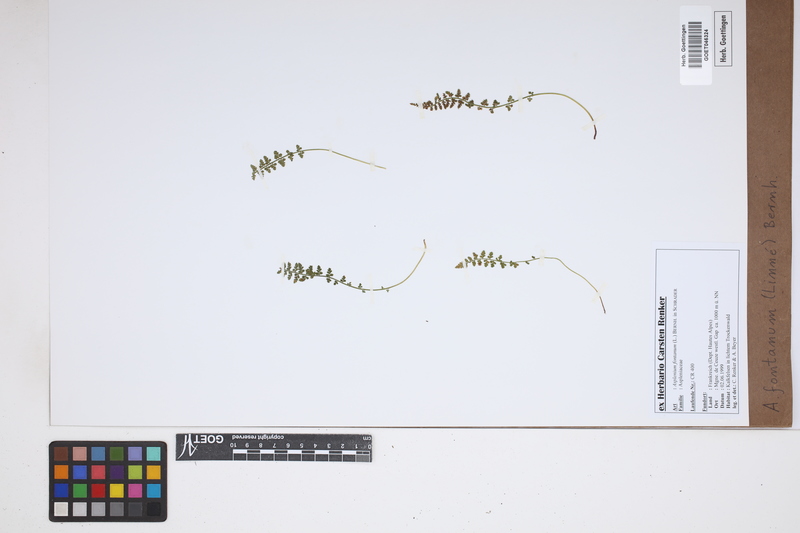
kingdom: Plantae
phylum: Tracheophyta
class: Polypodiopsida
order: Polypodiales
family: Aspleniaceae
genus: Asplenium
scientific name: Asplenium fontanum
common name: Fountain spleenwort
